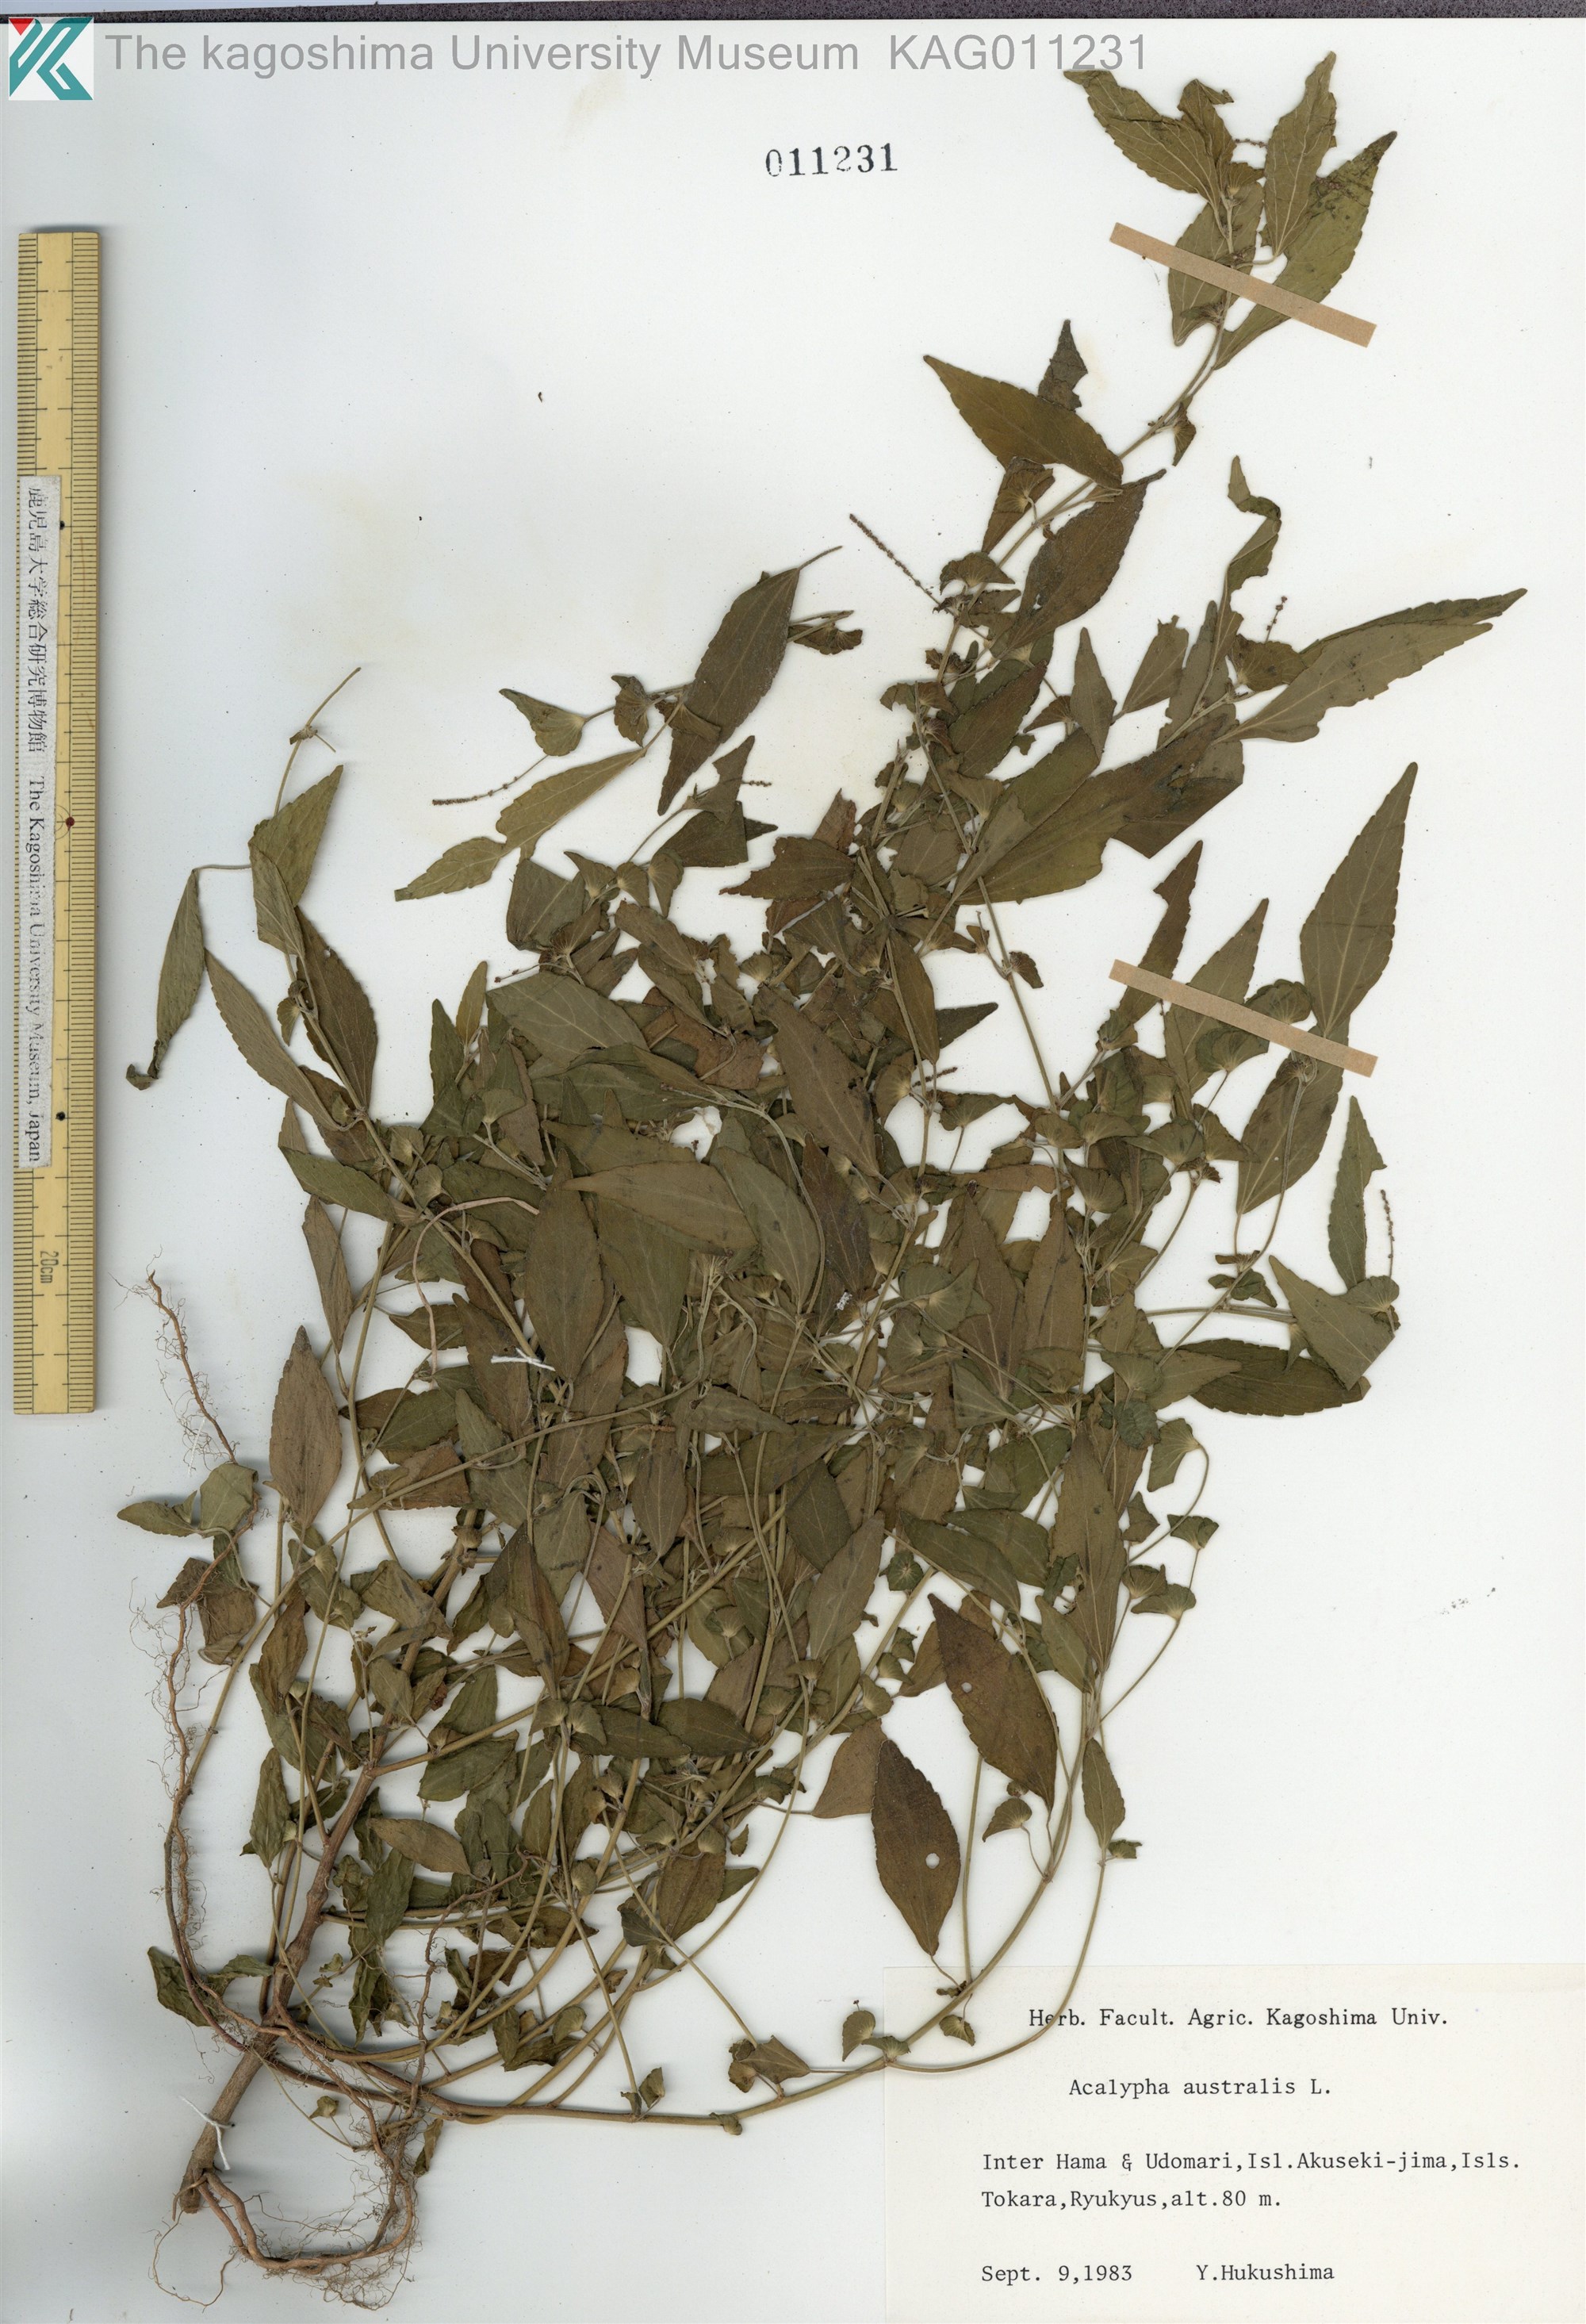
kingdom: Plantae
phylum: Tracheophyta
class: Magnoliopsida
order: Malpighiales
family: Euphorbiaceae
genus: Acalypha
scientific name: Acalypha australis
